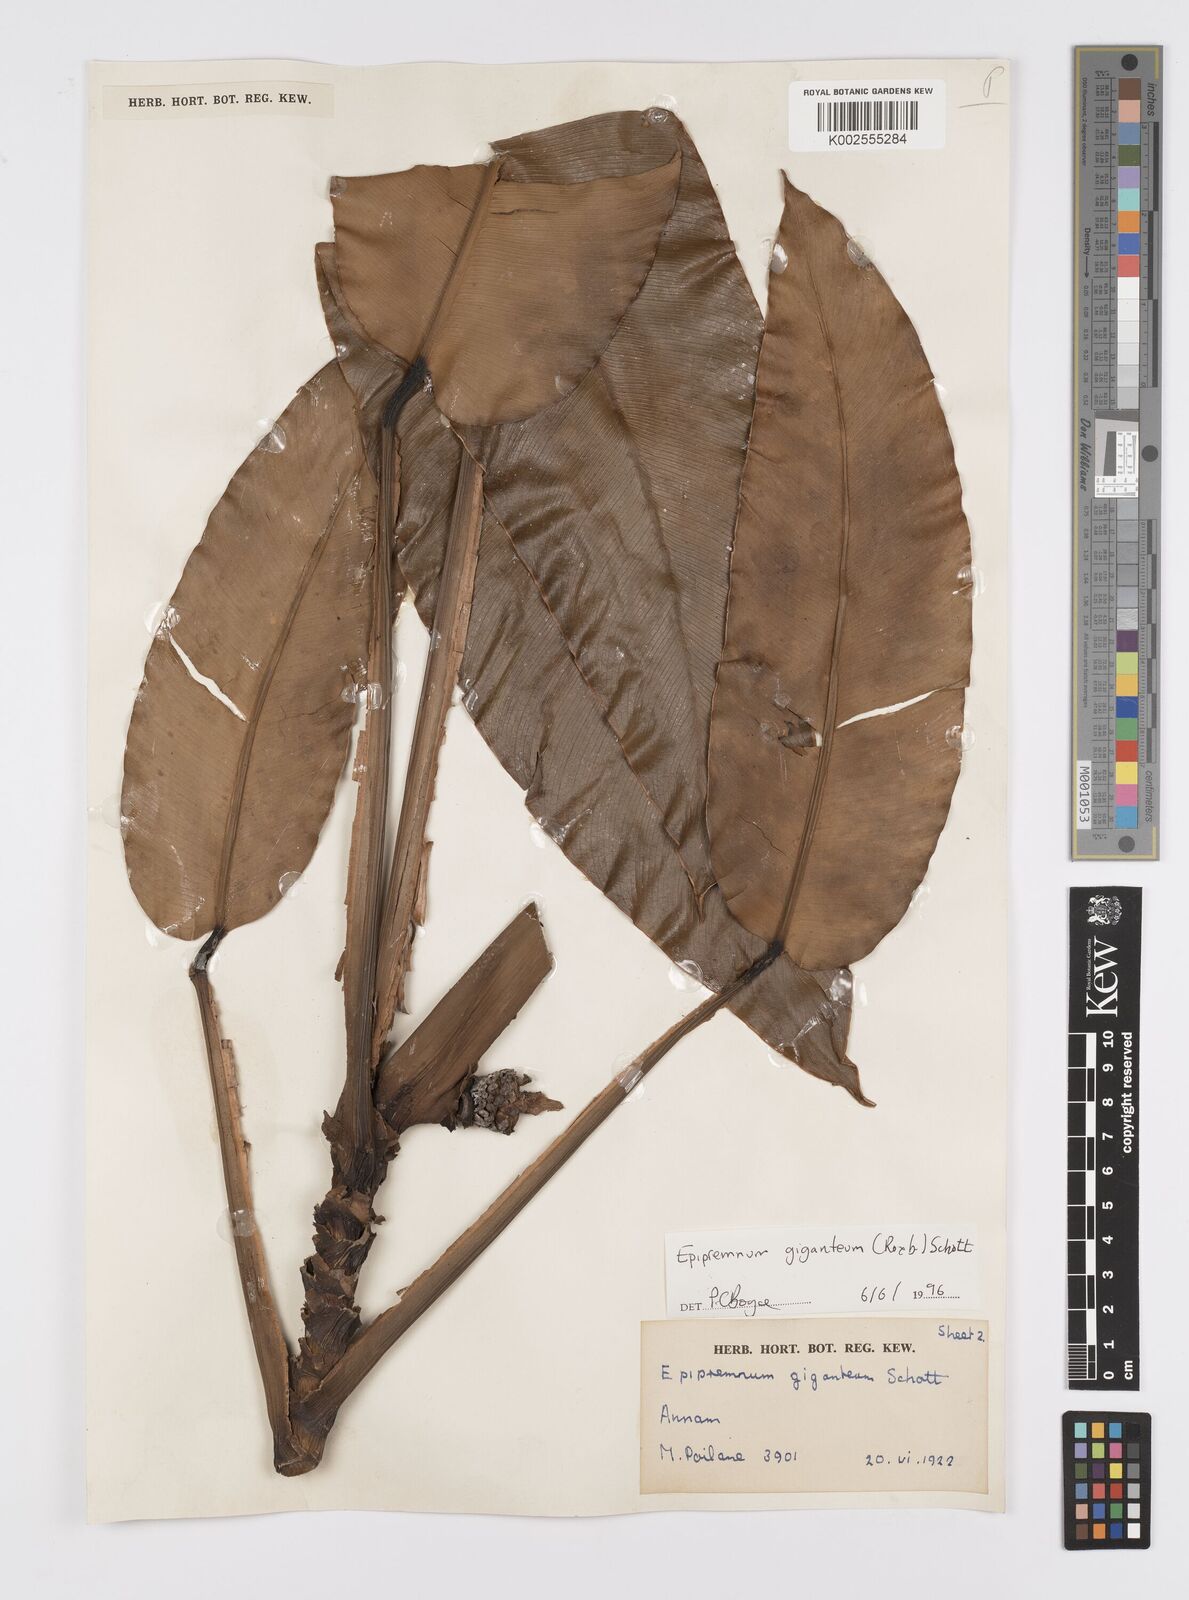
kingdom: Plantae
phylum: Tracheophyta
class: Liliopsida
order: Alismatales
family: Araceae
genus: Epipremnum
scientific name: Epipremnum giganteum
